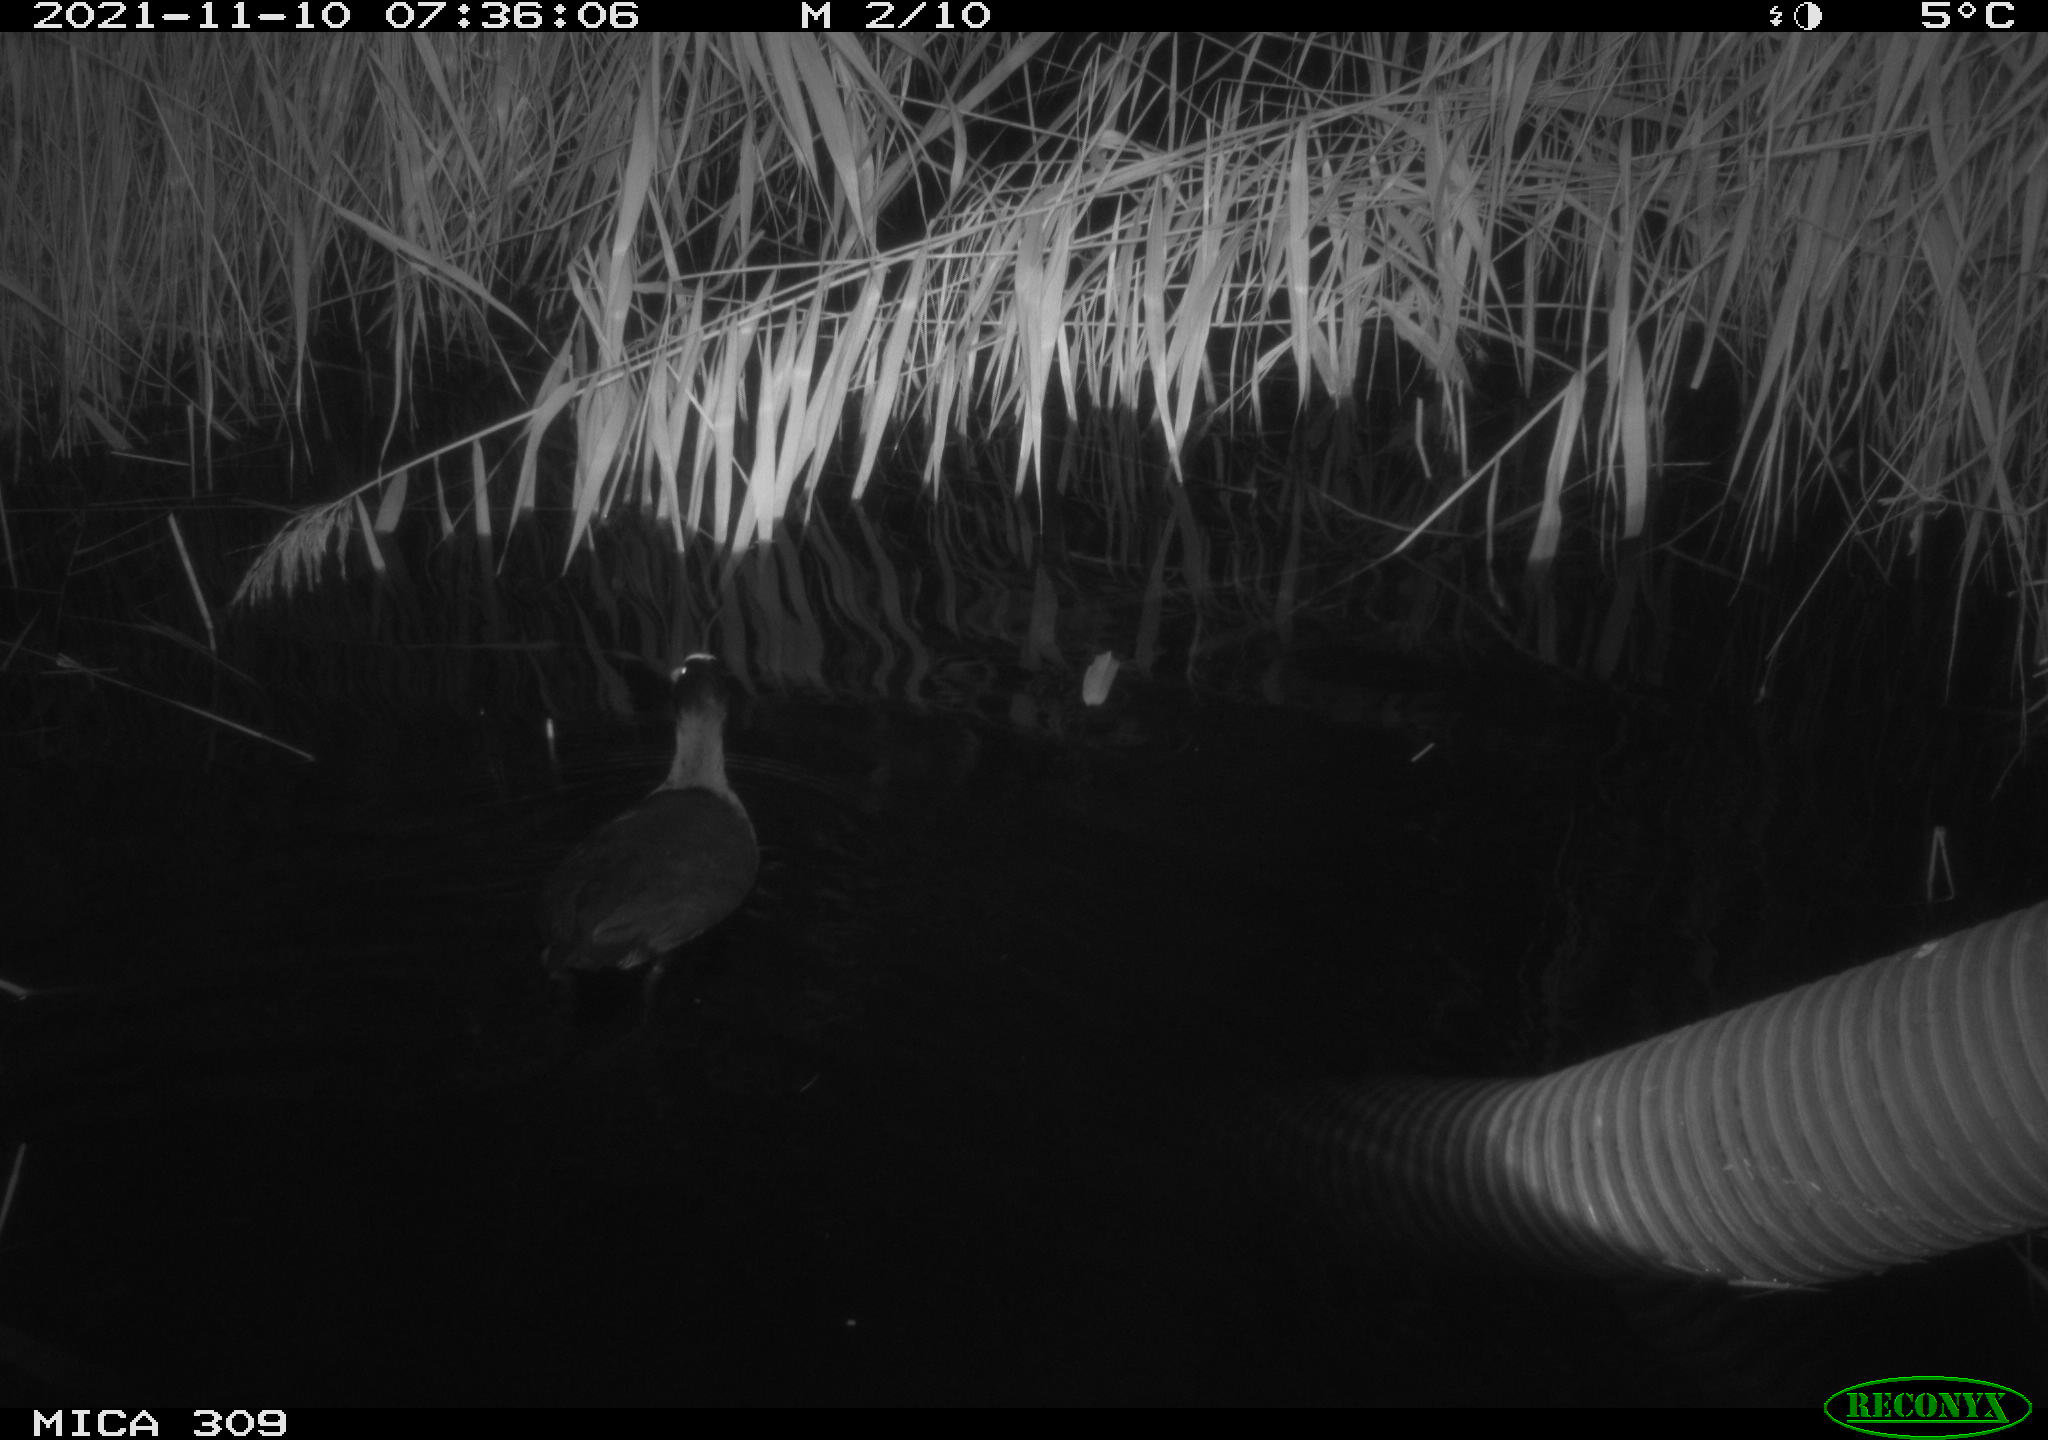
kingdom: Animalia
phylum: Chordata
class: Aves
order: Gruiformes
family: Rallidae
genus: Fulica
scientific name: Fulica atra
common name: Eurasian coot
